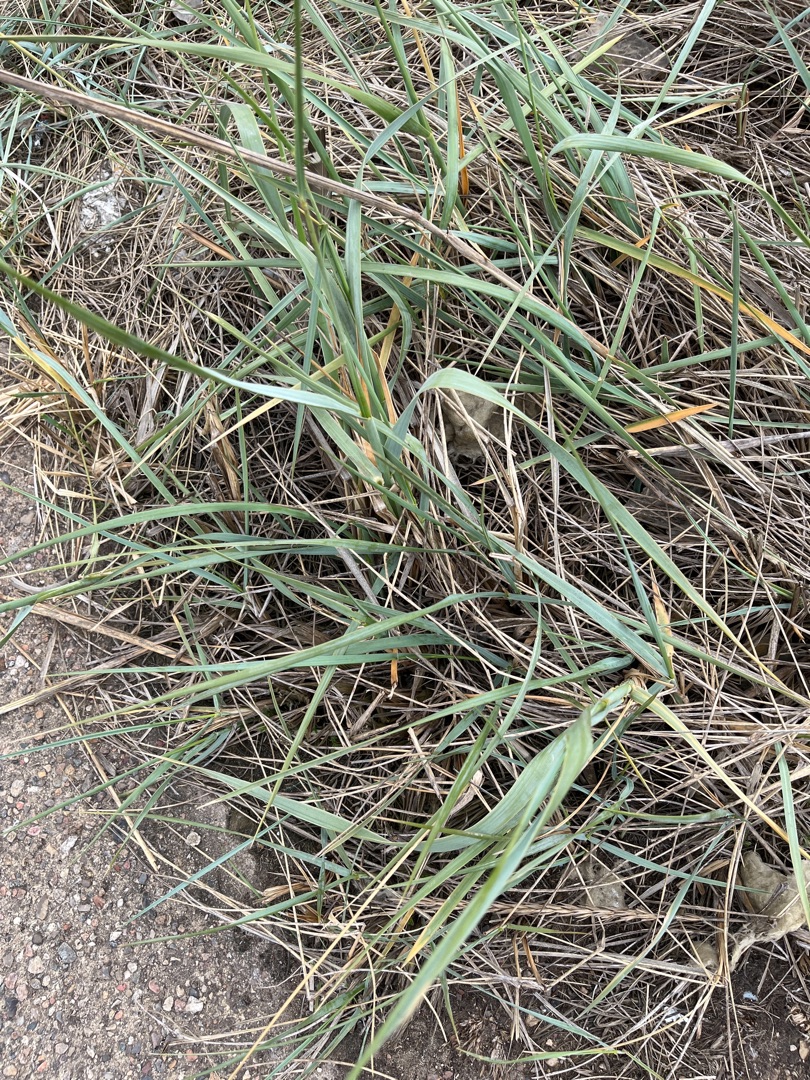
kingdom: Plantae
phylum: Tracheophyta
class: Liliopsida
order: Poales
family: Poaceae
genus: Leymus
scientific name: Leymus arenarius
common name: Marehalm
